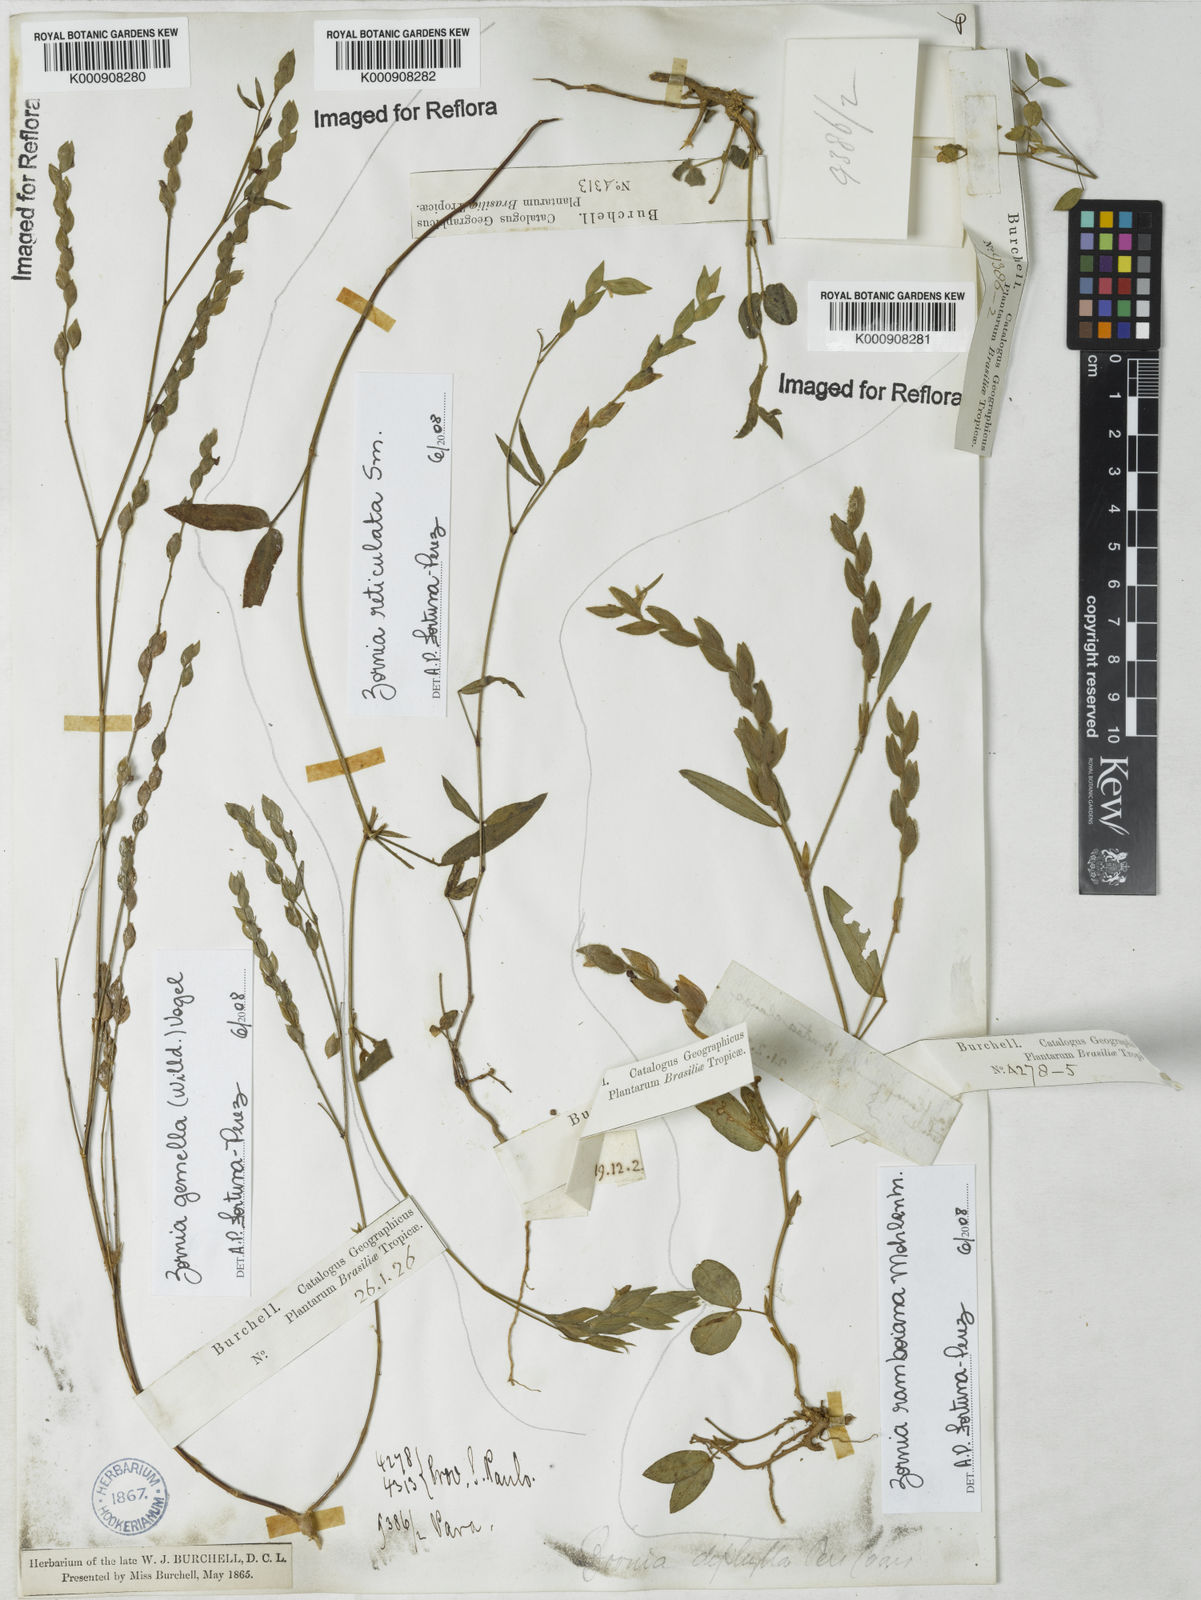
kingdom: Plantae
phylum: Tracheophyta
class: Magnoliopsida
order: Fabales
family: Fabaceae
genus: Zornia
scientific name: Zornia
